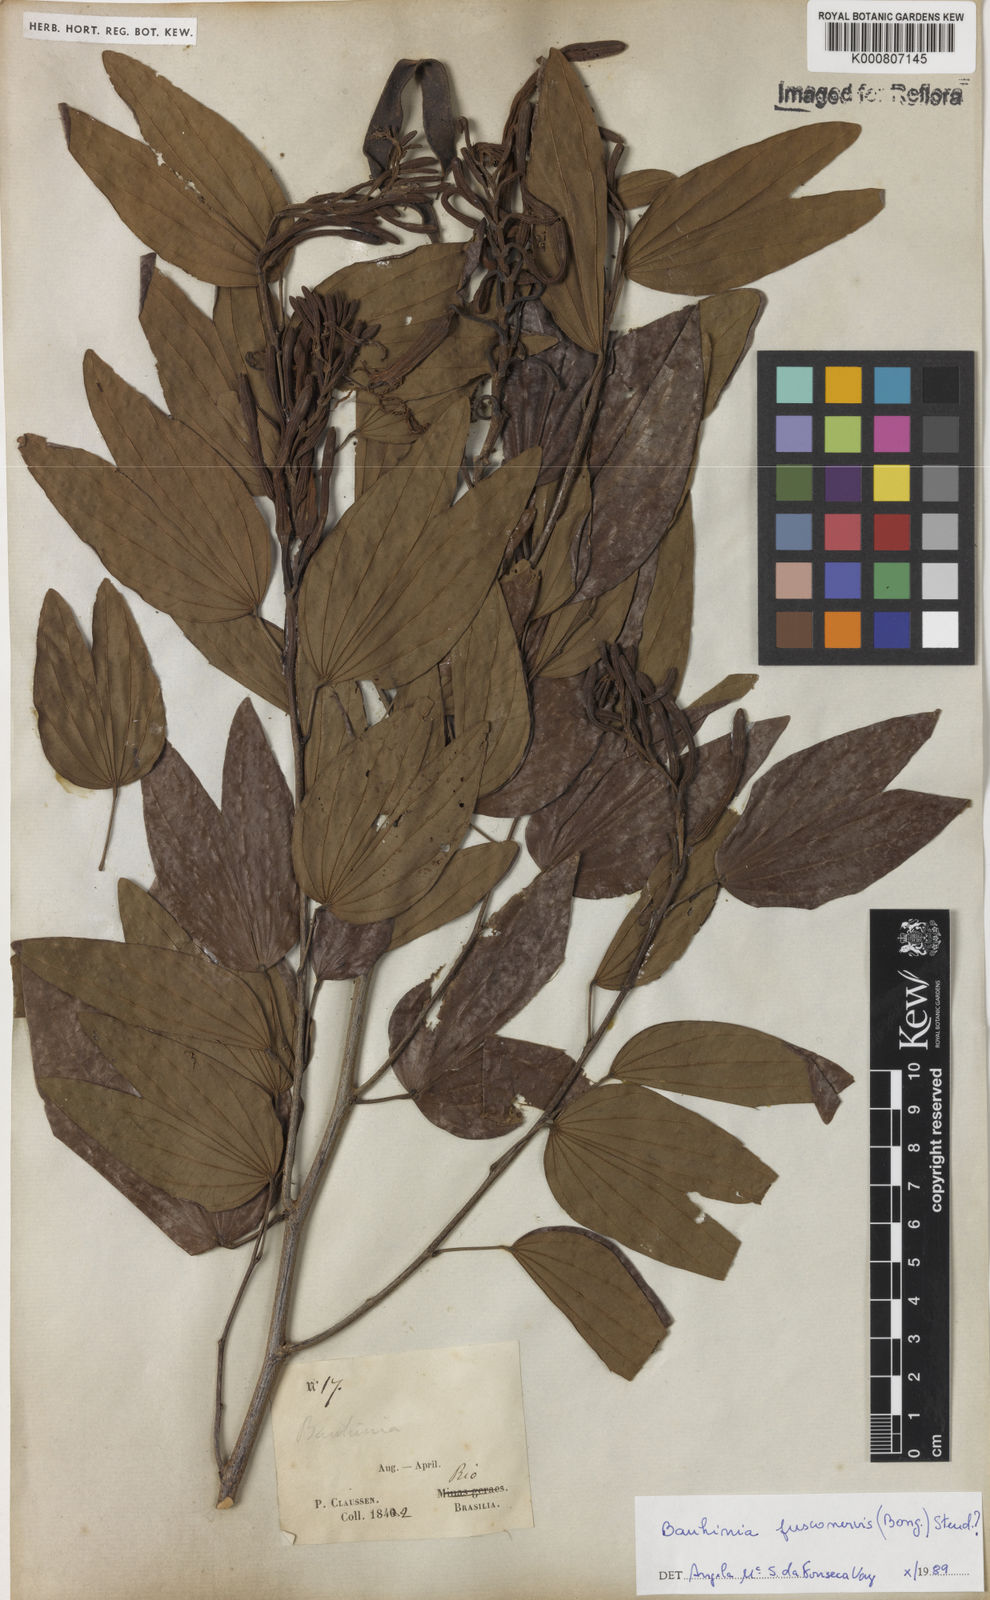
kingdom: Plantae
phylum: Tracheophyta
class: Magnoliopsida
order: Fabales
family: Fabaceae
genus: Bauhinia
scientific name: Bauhinia
